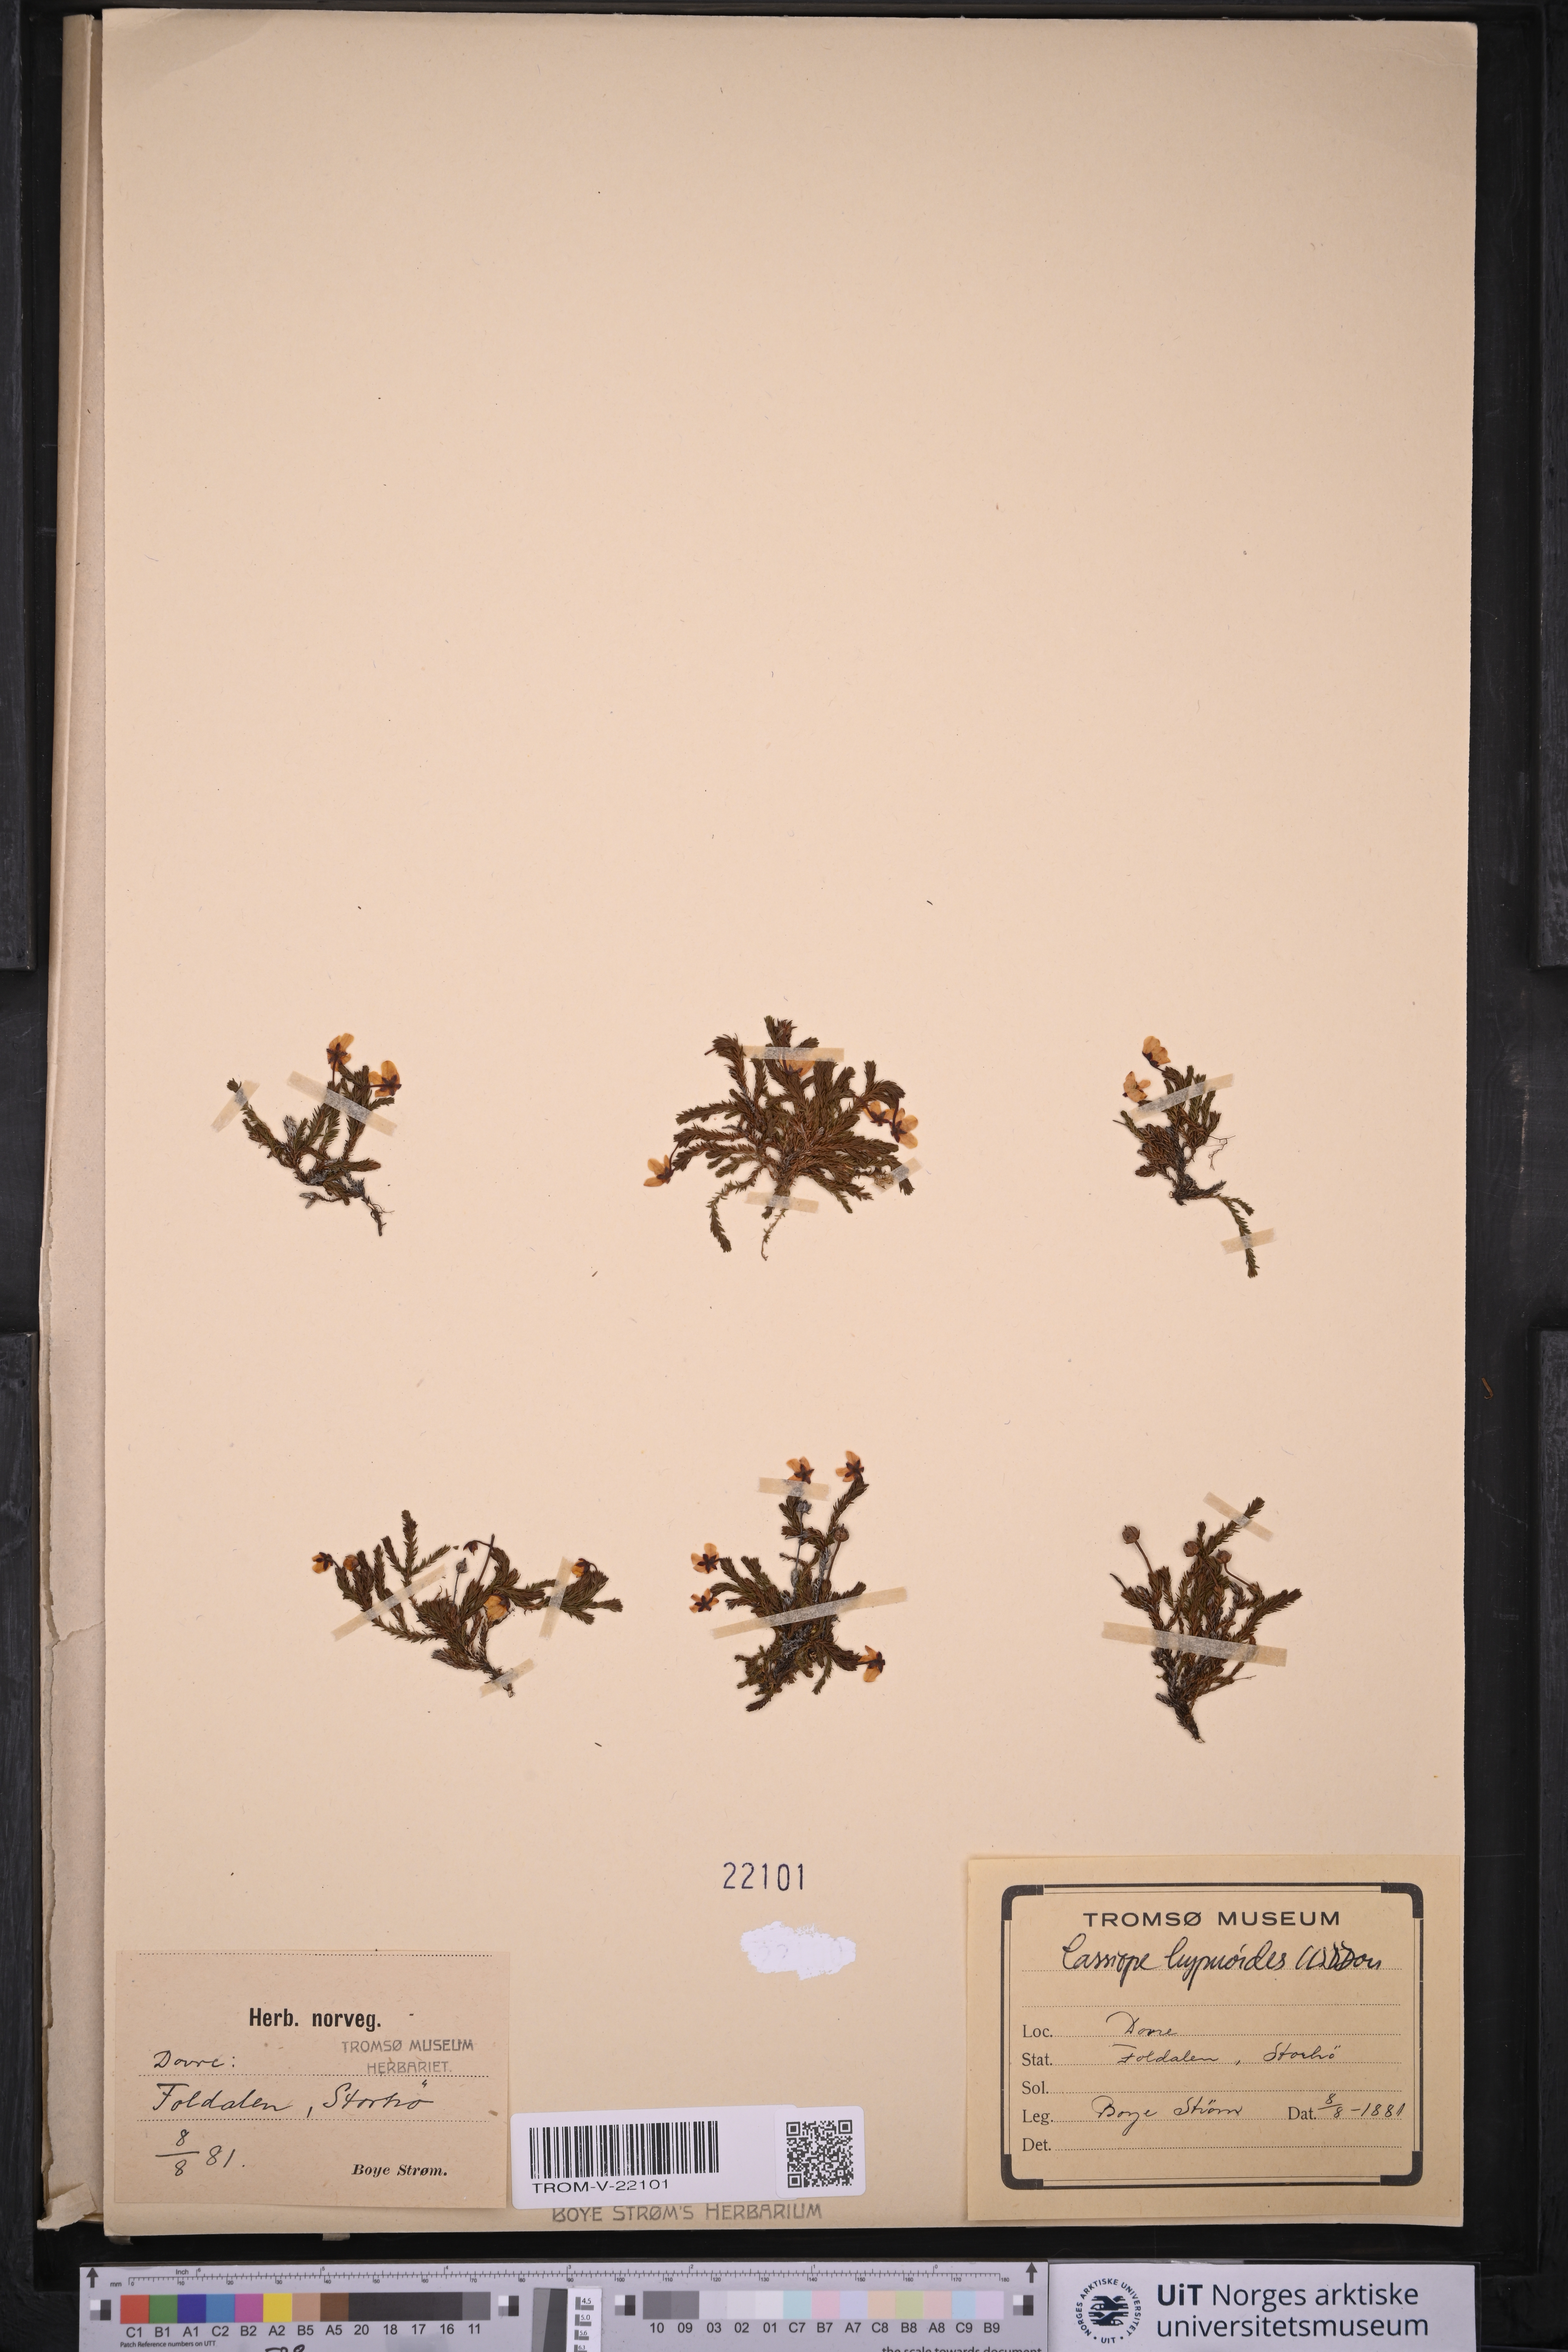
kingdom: Plantae
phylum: Tracheophyta
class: Magnoliopsida
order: Ericales
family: Ericaceae
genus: Harrimanella
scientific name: Harrimanella hypnoides
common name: Moss bell heather
